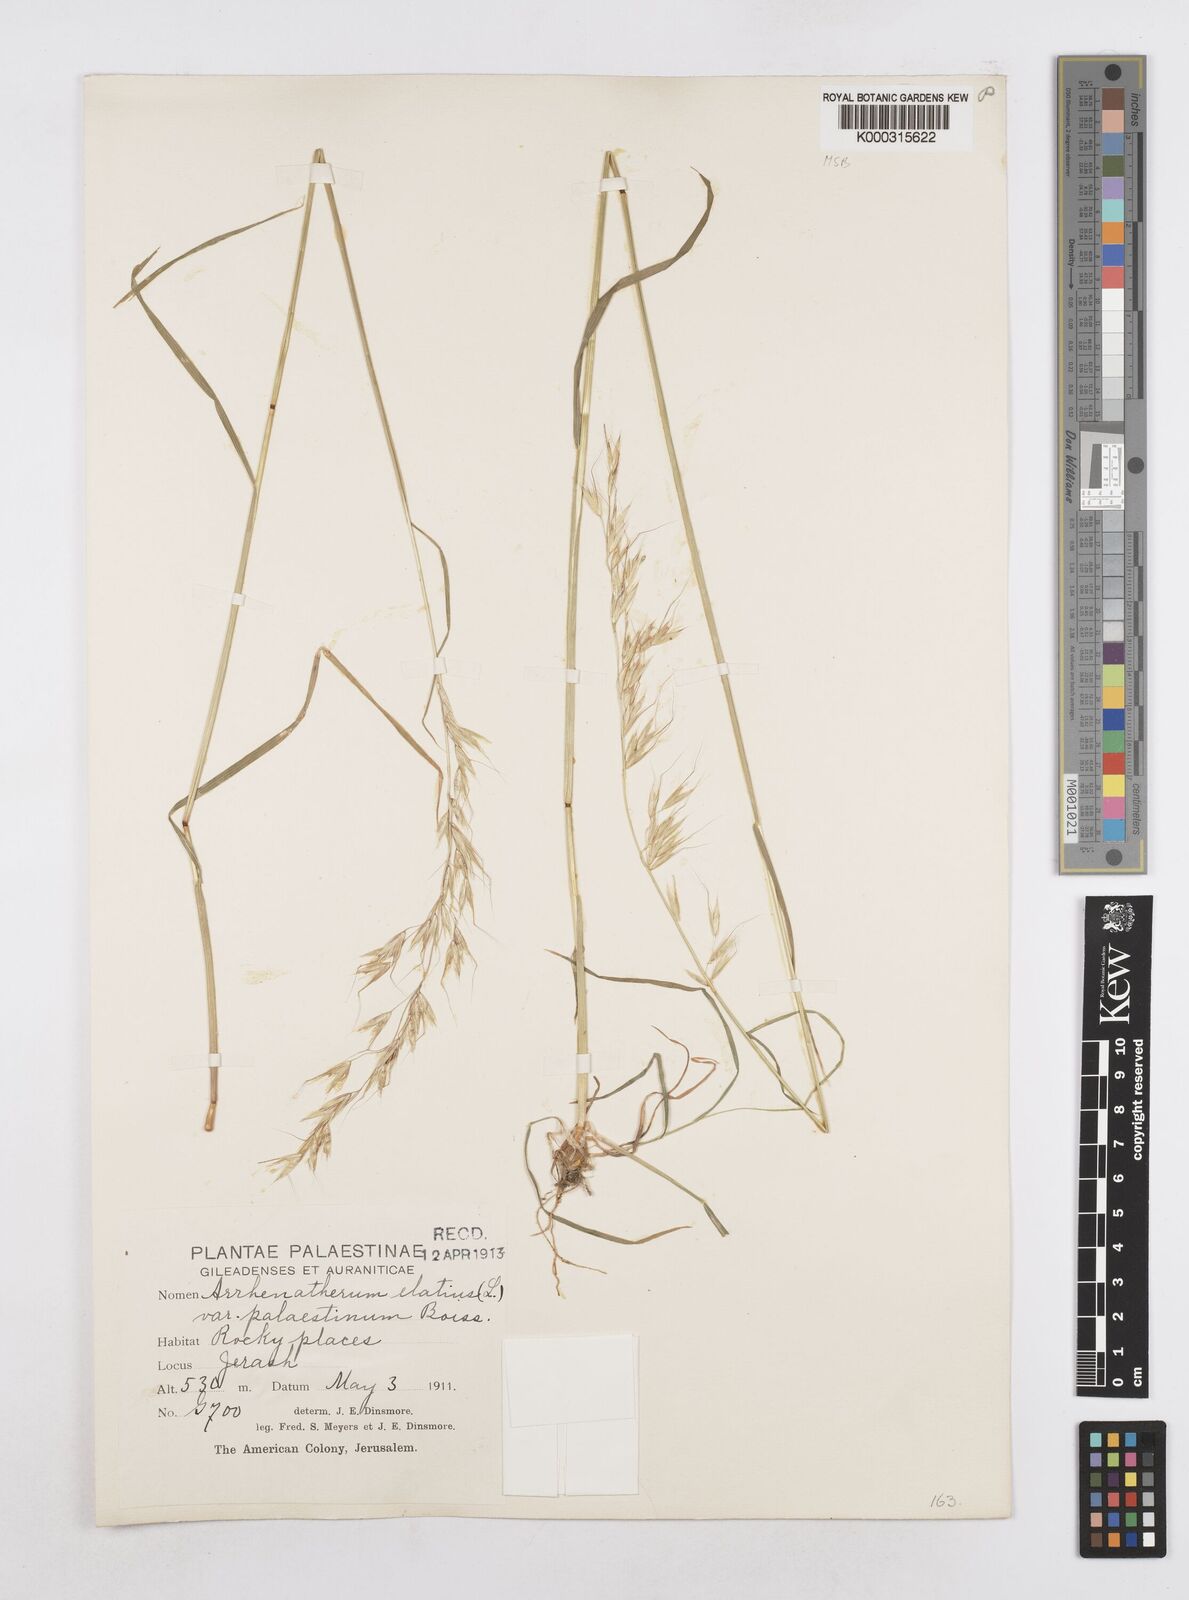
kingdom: Plantae
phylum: Tracheophyta
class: Liliopsida
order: Poales
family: Poaceae
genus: Arrhenatherum
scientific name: Arrhenatherum palaestinum
